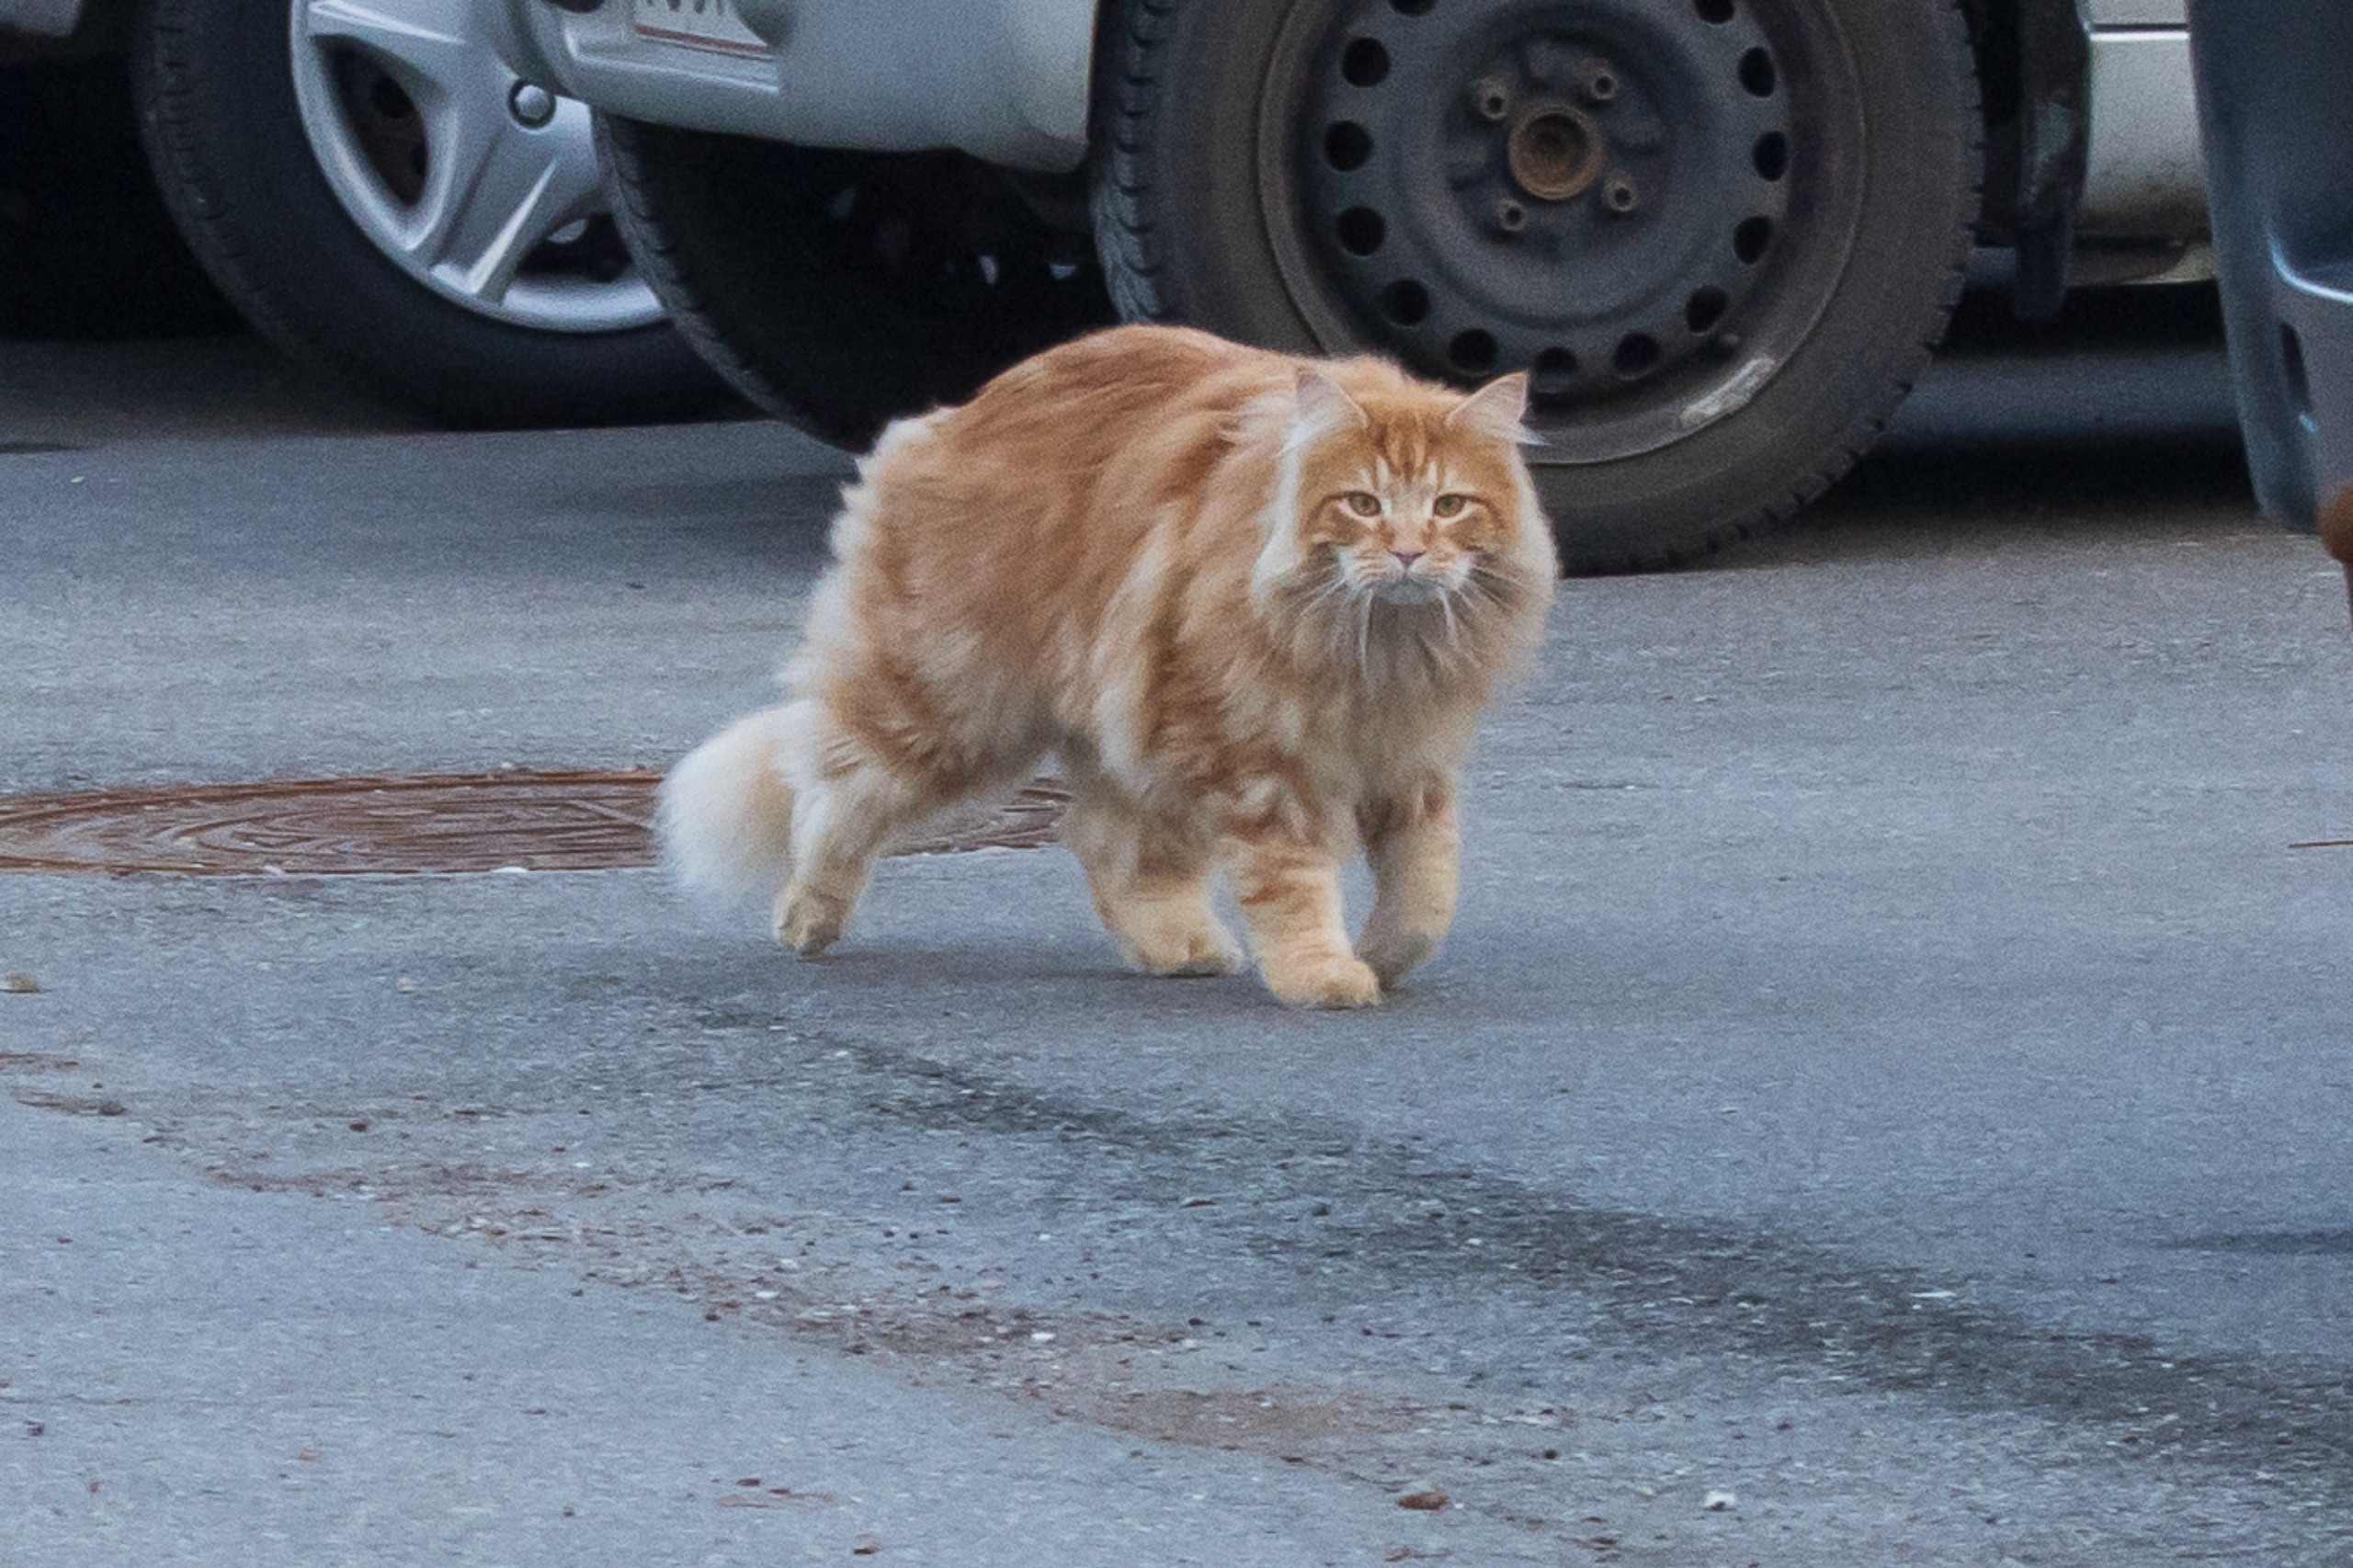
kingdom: Animalia
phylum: Chordata
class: Mammalia
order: Carnivora
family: Felidae
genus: Felis
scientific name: Felis catus
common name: Tamkat
